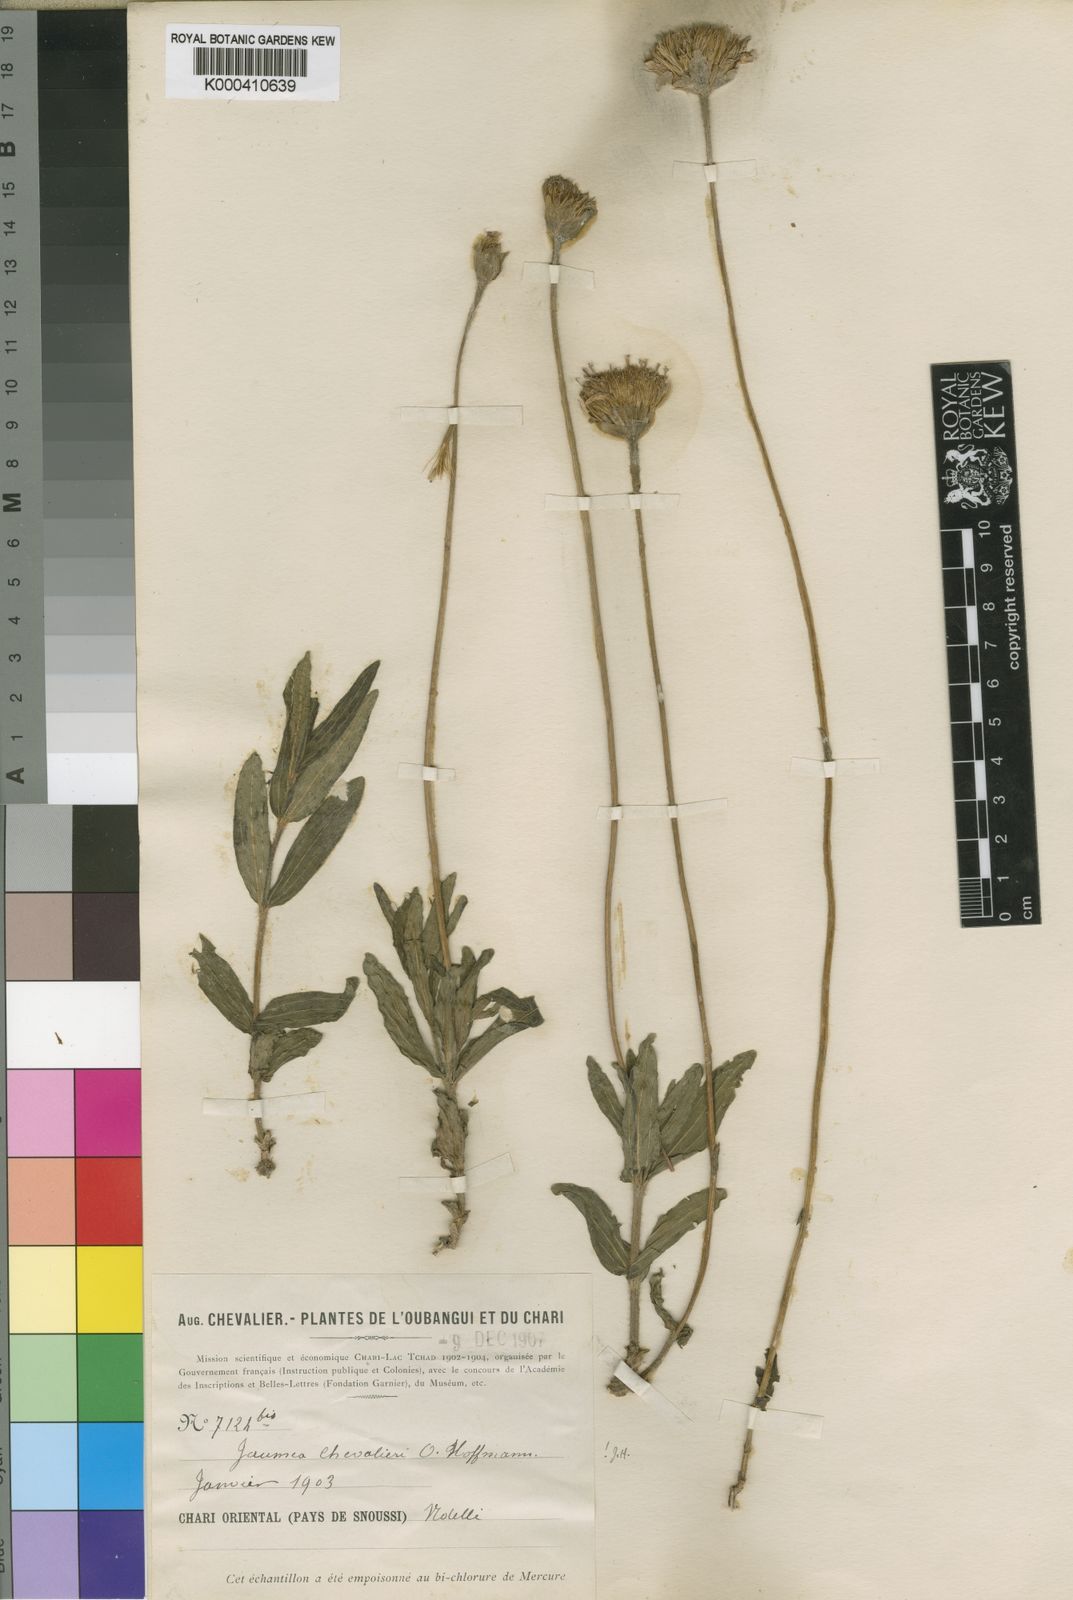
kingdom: Plantae
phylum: Tracheophyta
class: Magnoliopsida
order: Asterales
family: Asteraceae
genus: Hypericophyllum
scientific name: Hypericophyllum chevalieri
